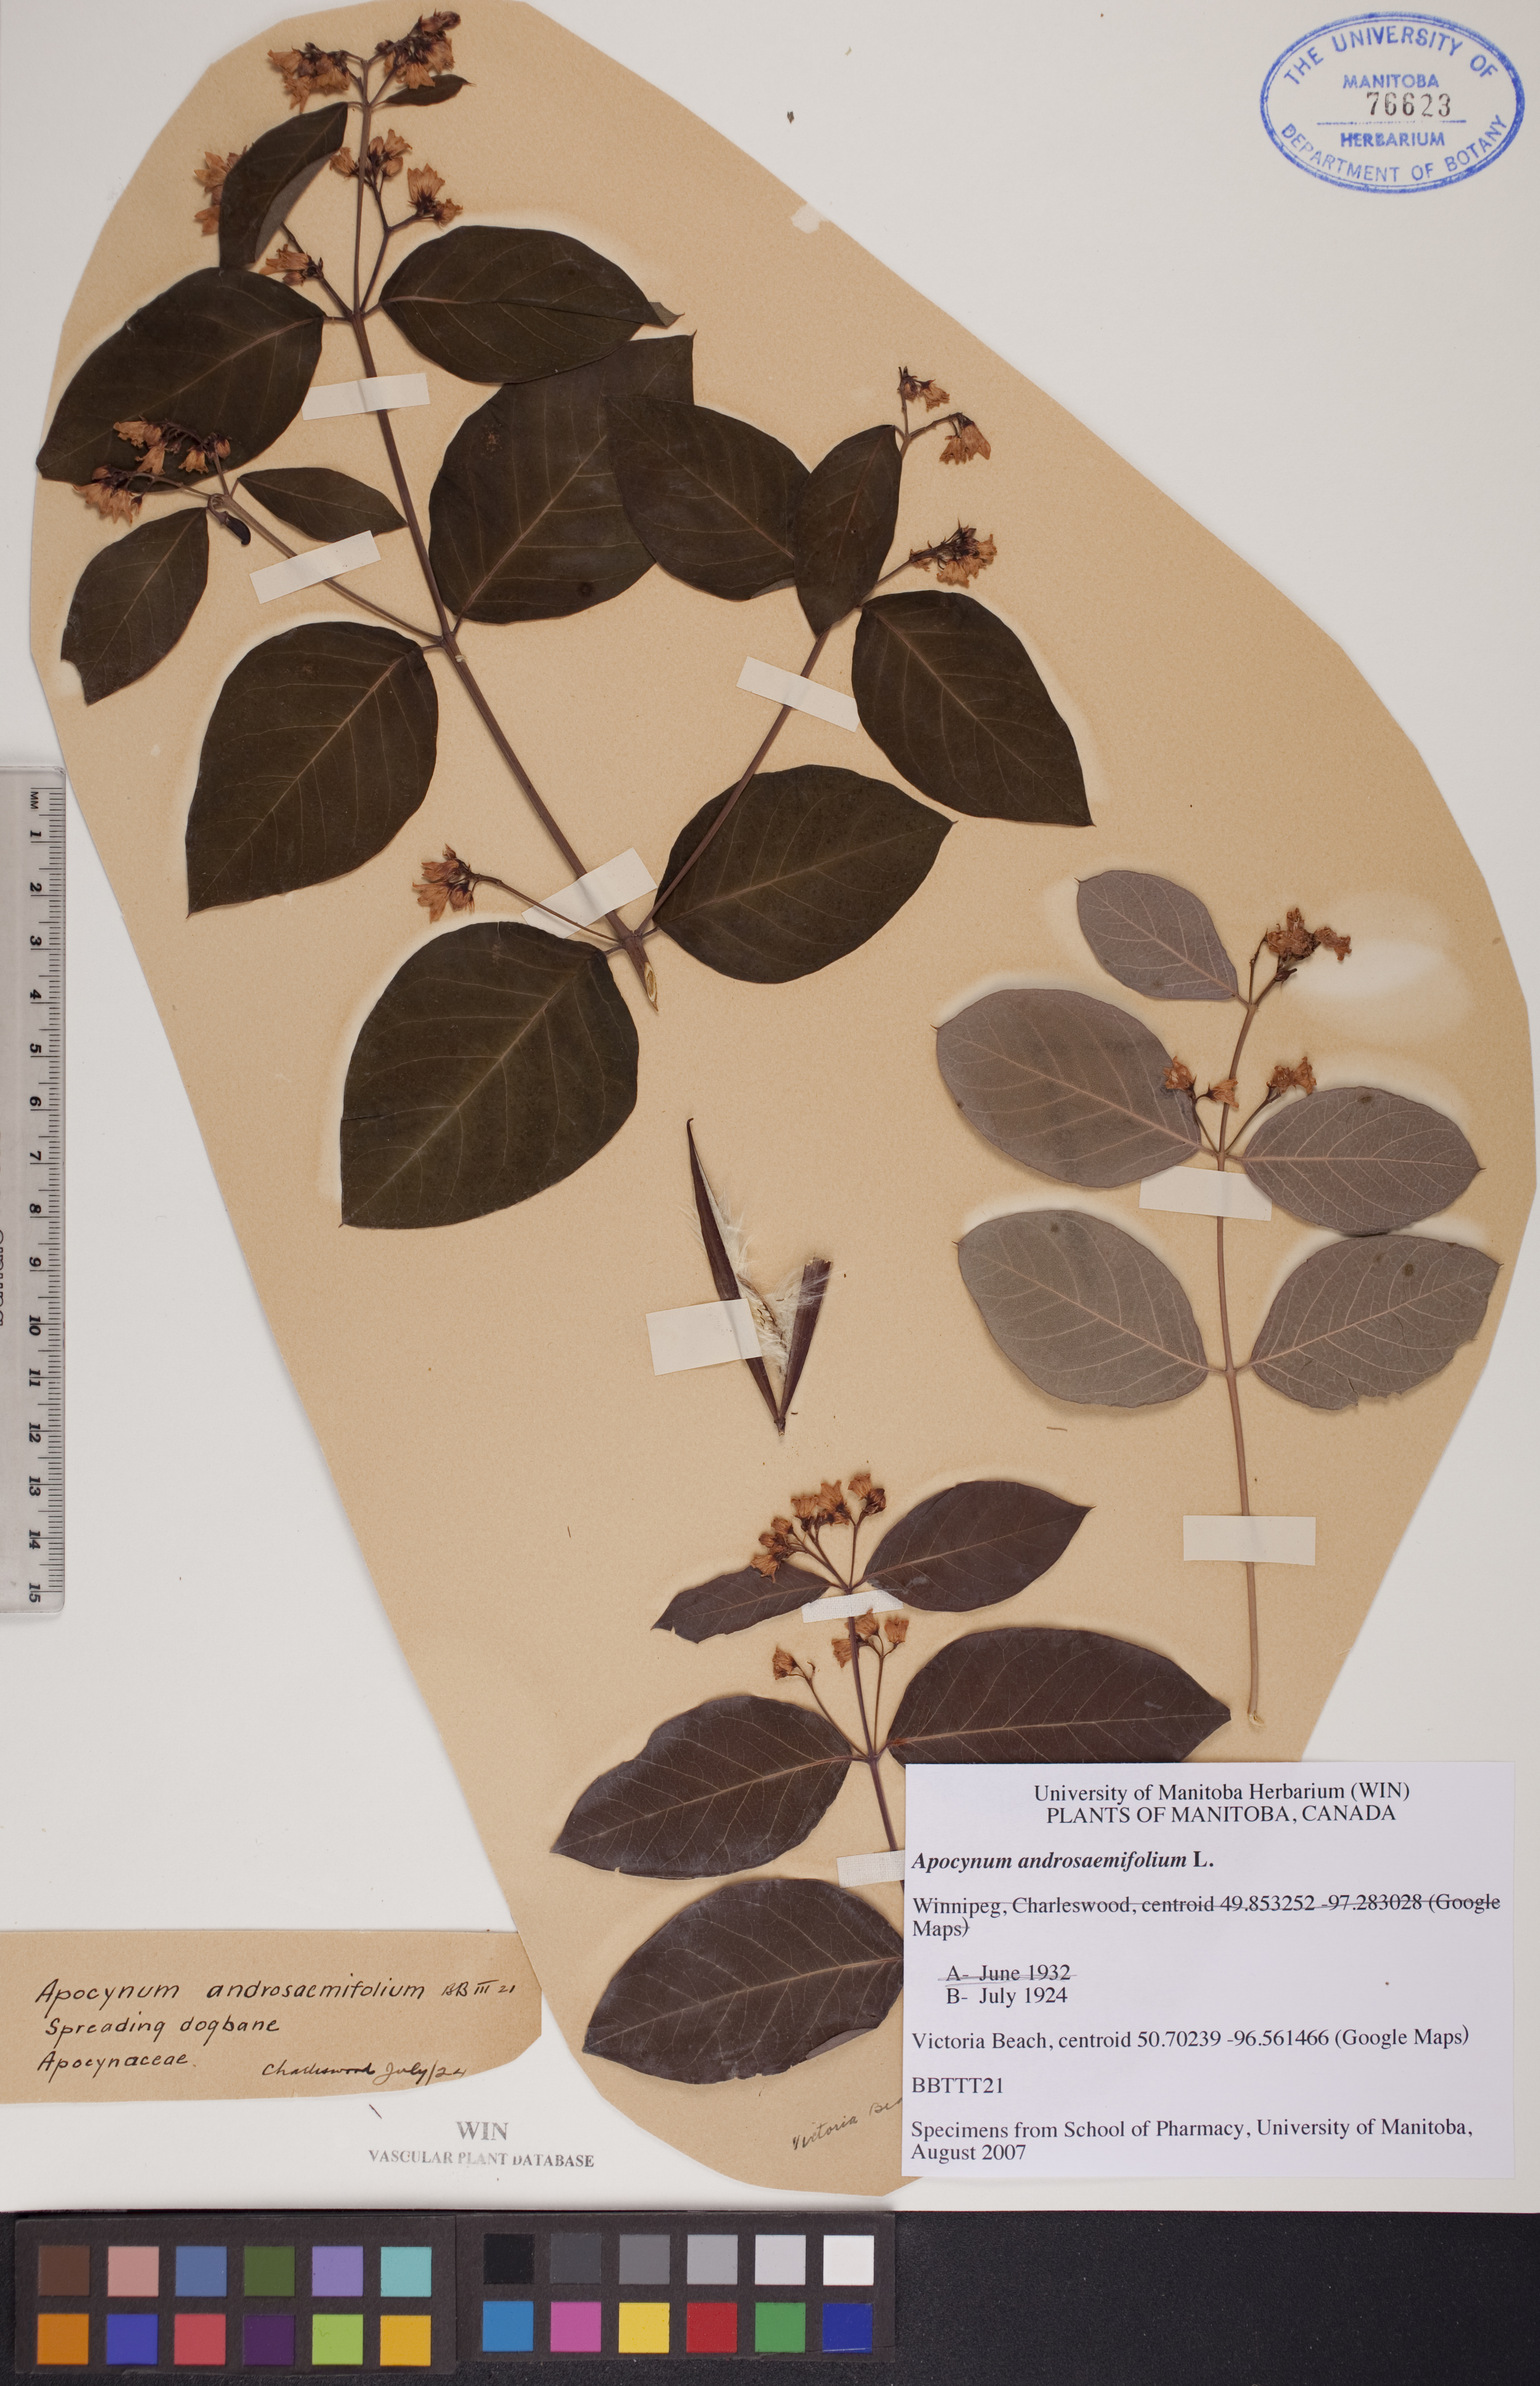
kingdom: Plantae
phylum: Tracheophyta
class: Magnoliopsida
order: Gentianales
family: Apocynaceae
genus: Apocynum
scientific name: Apocynum androsaemifolium
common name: Spreading dogbane
